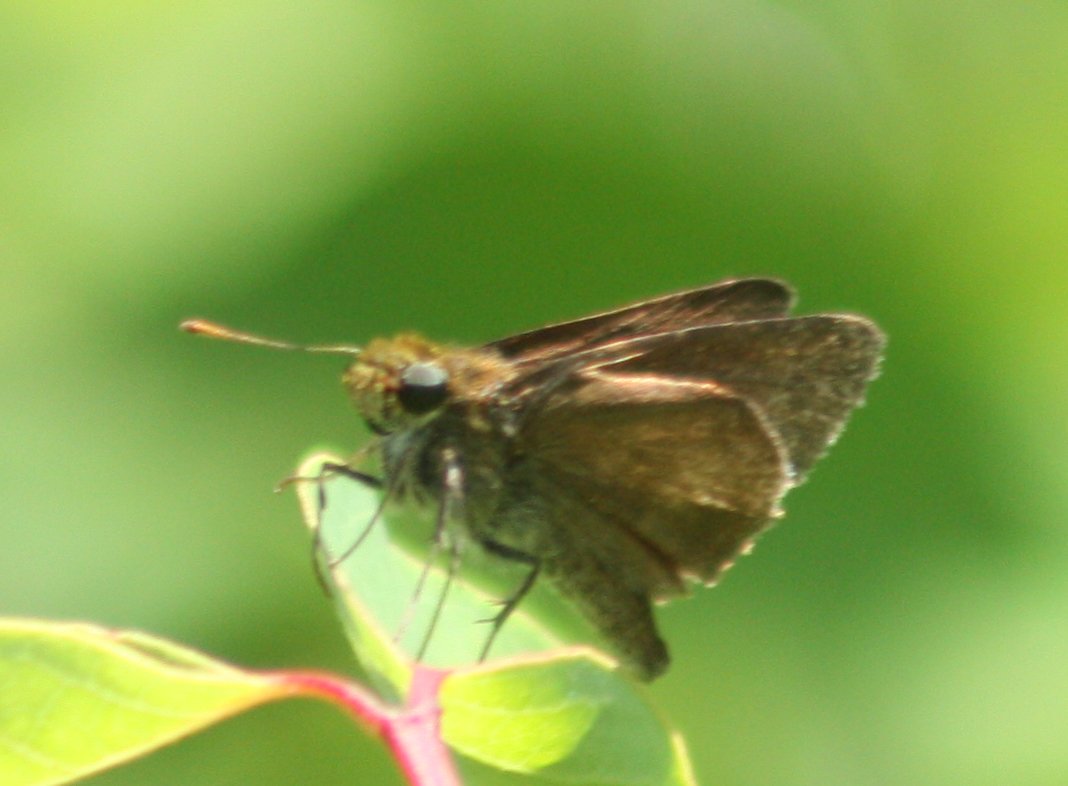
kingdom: Animalia
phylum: Arthropoda
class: Insecta
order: Lepidoptera
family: Hesperiidae
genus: Euphyes
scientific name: Euphyes vestris
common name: Dun Skipper
